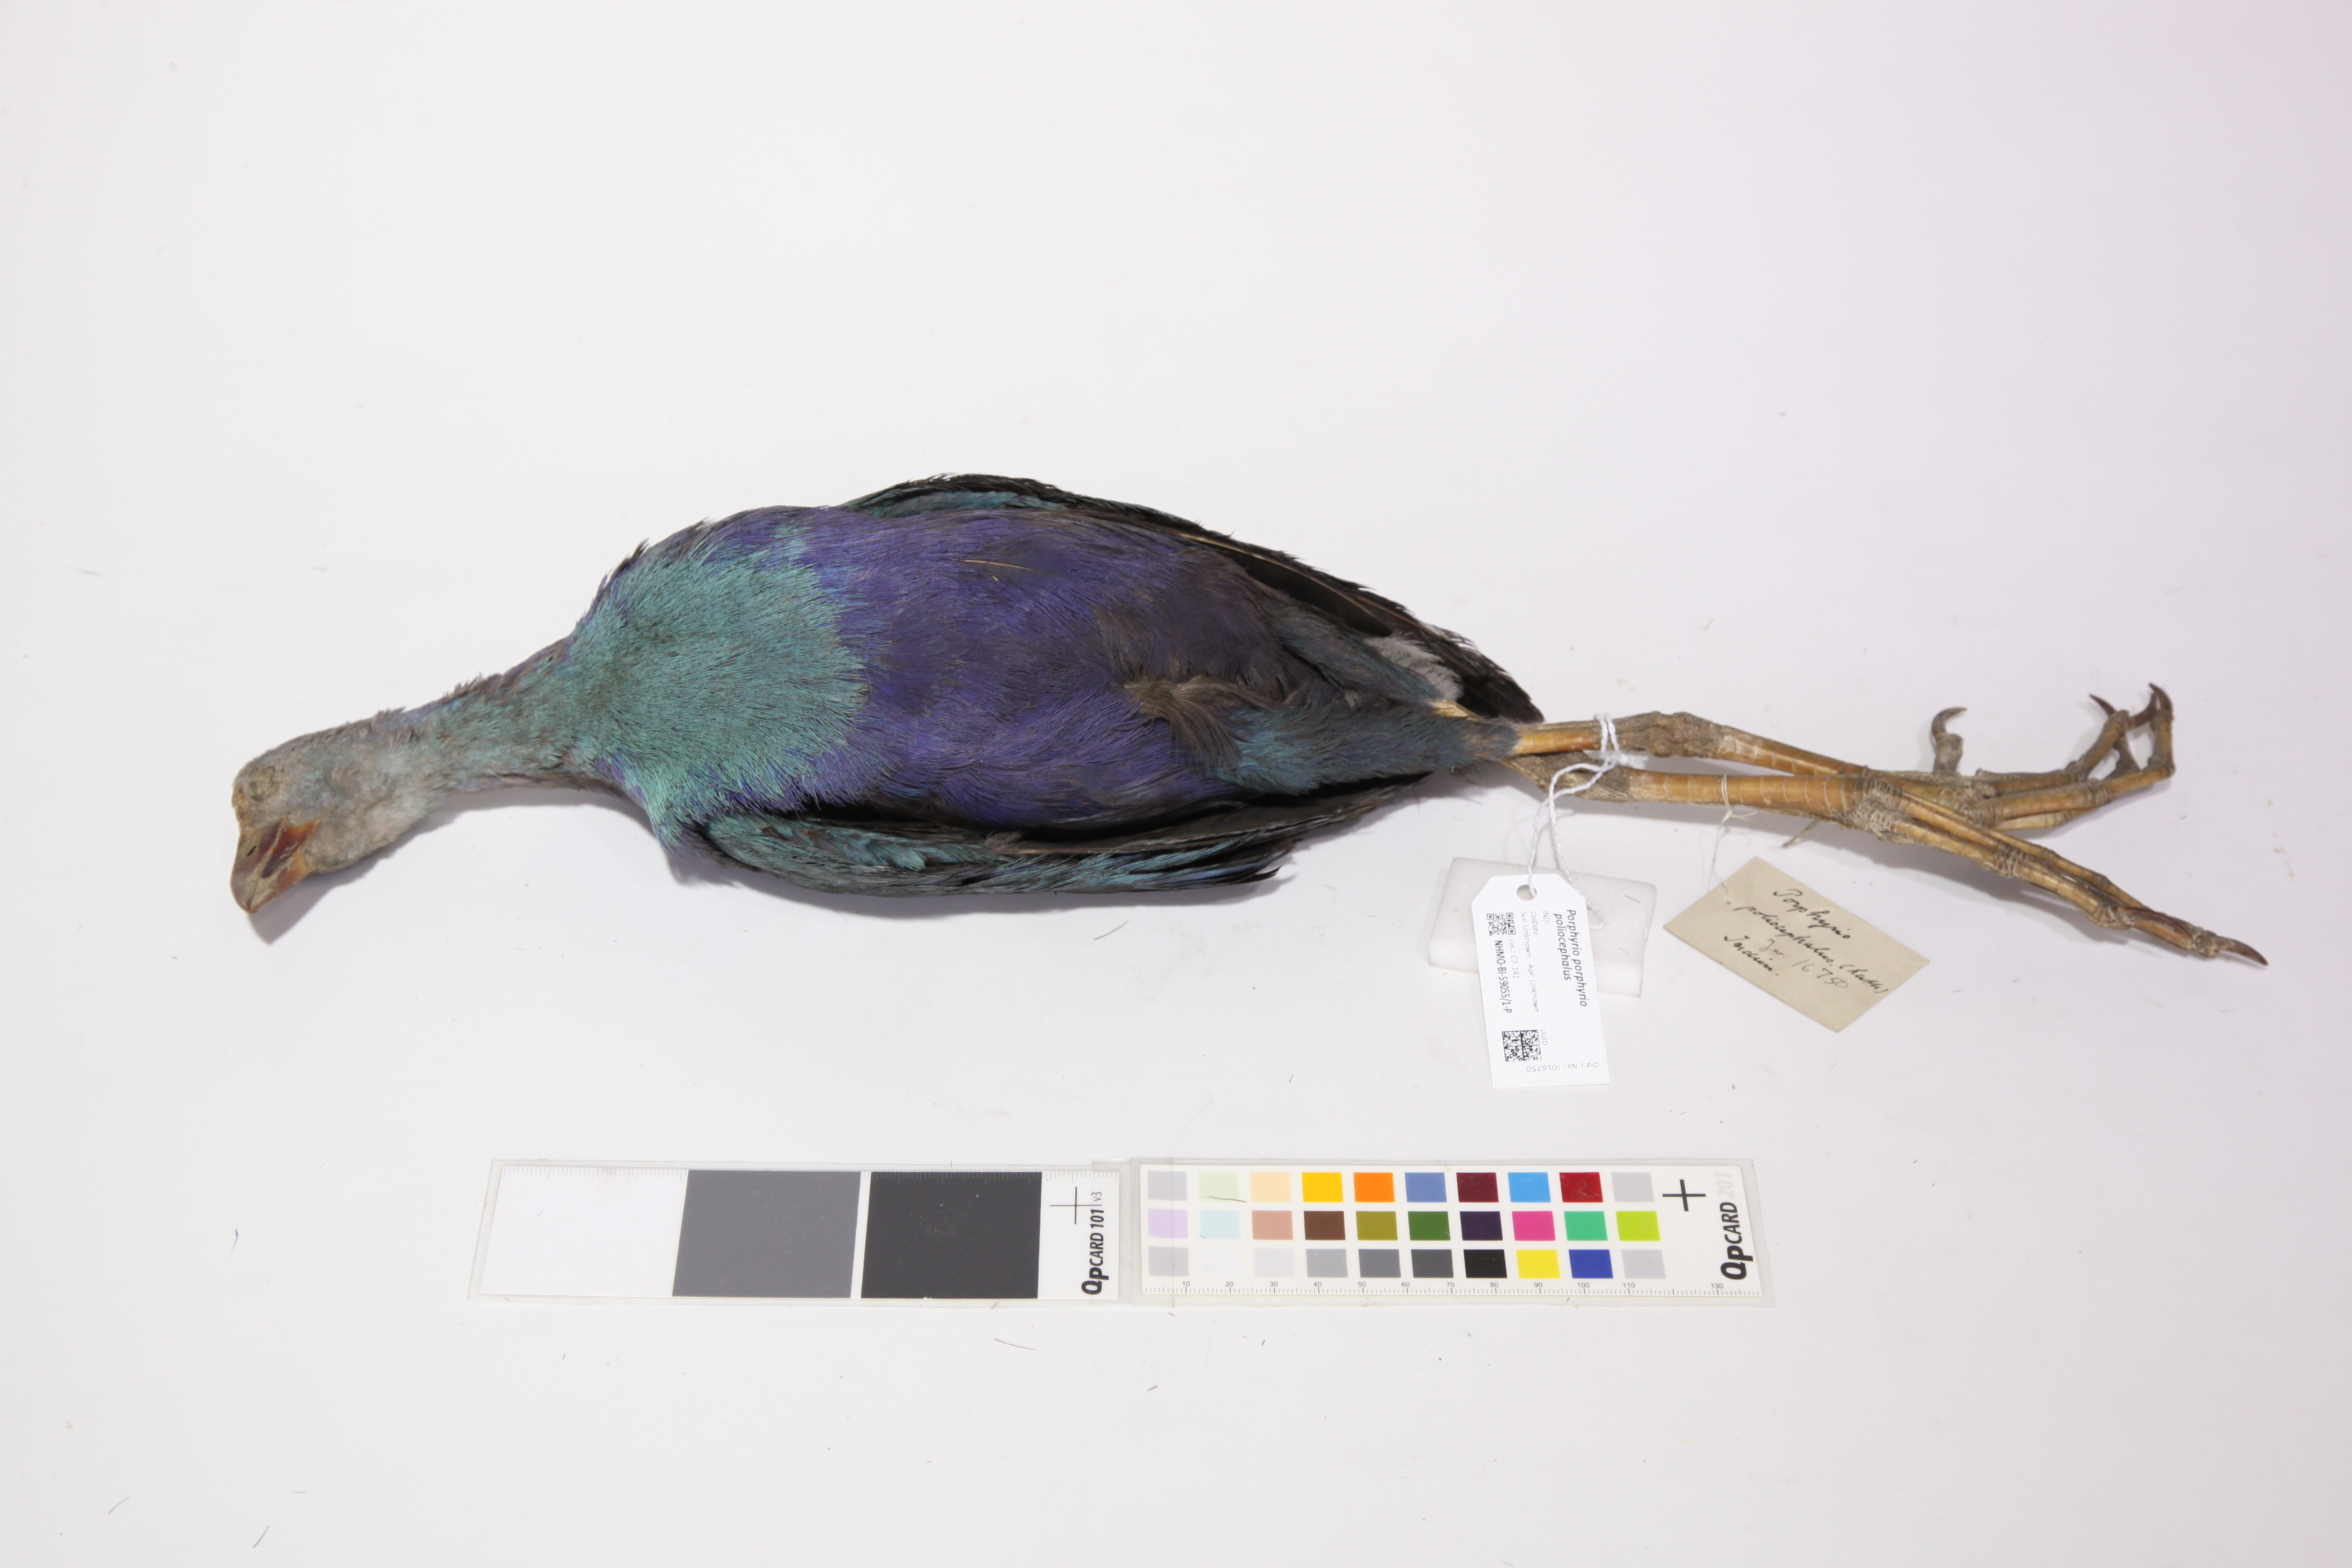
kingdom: Animalia
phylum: Chordata
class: Aves
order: Gruiformes
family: Rallidae
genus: Porphyrio
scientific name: Porphyrio porphyrio
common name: Purple swamphen
